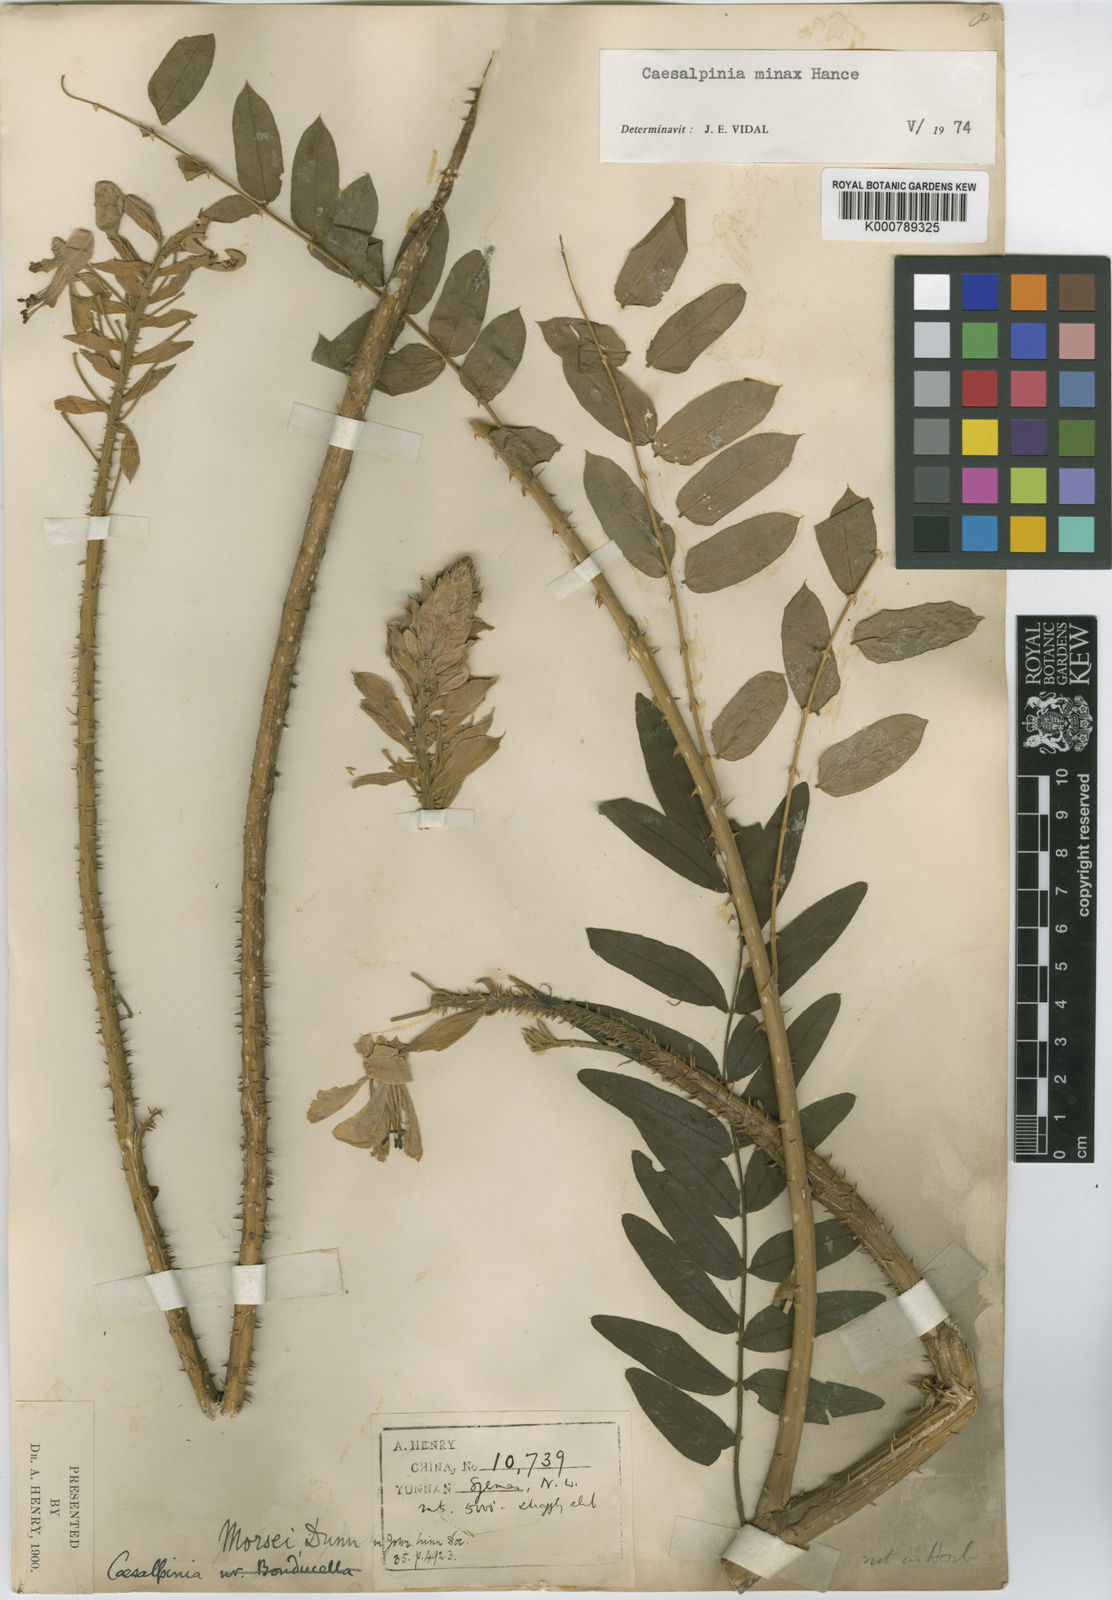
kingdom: Plantae
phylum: Tracheophyta
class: Magnoliopsida
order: Fabales
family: Fabaceae
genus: Guilandina
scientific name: Guilandina
